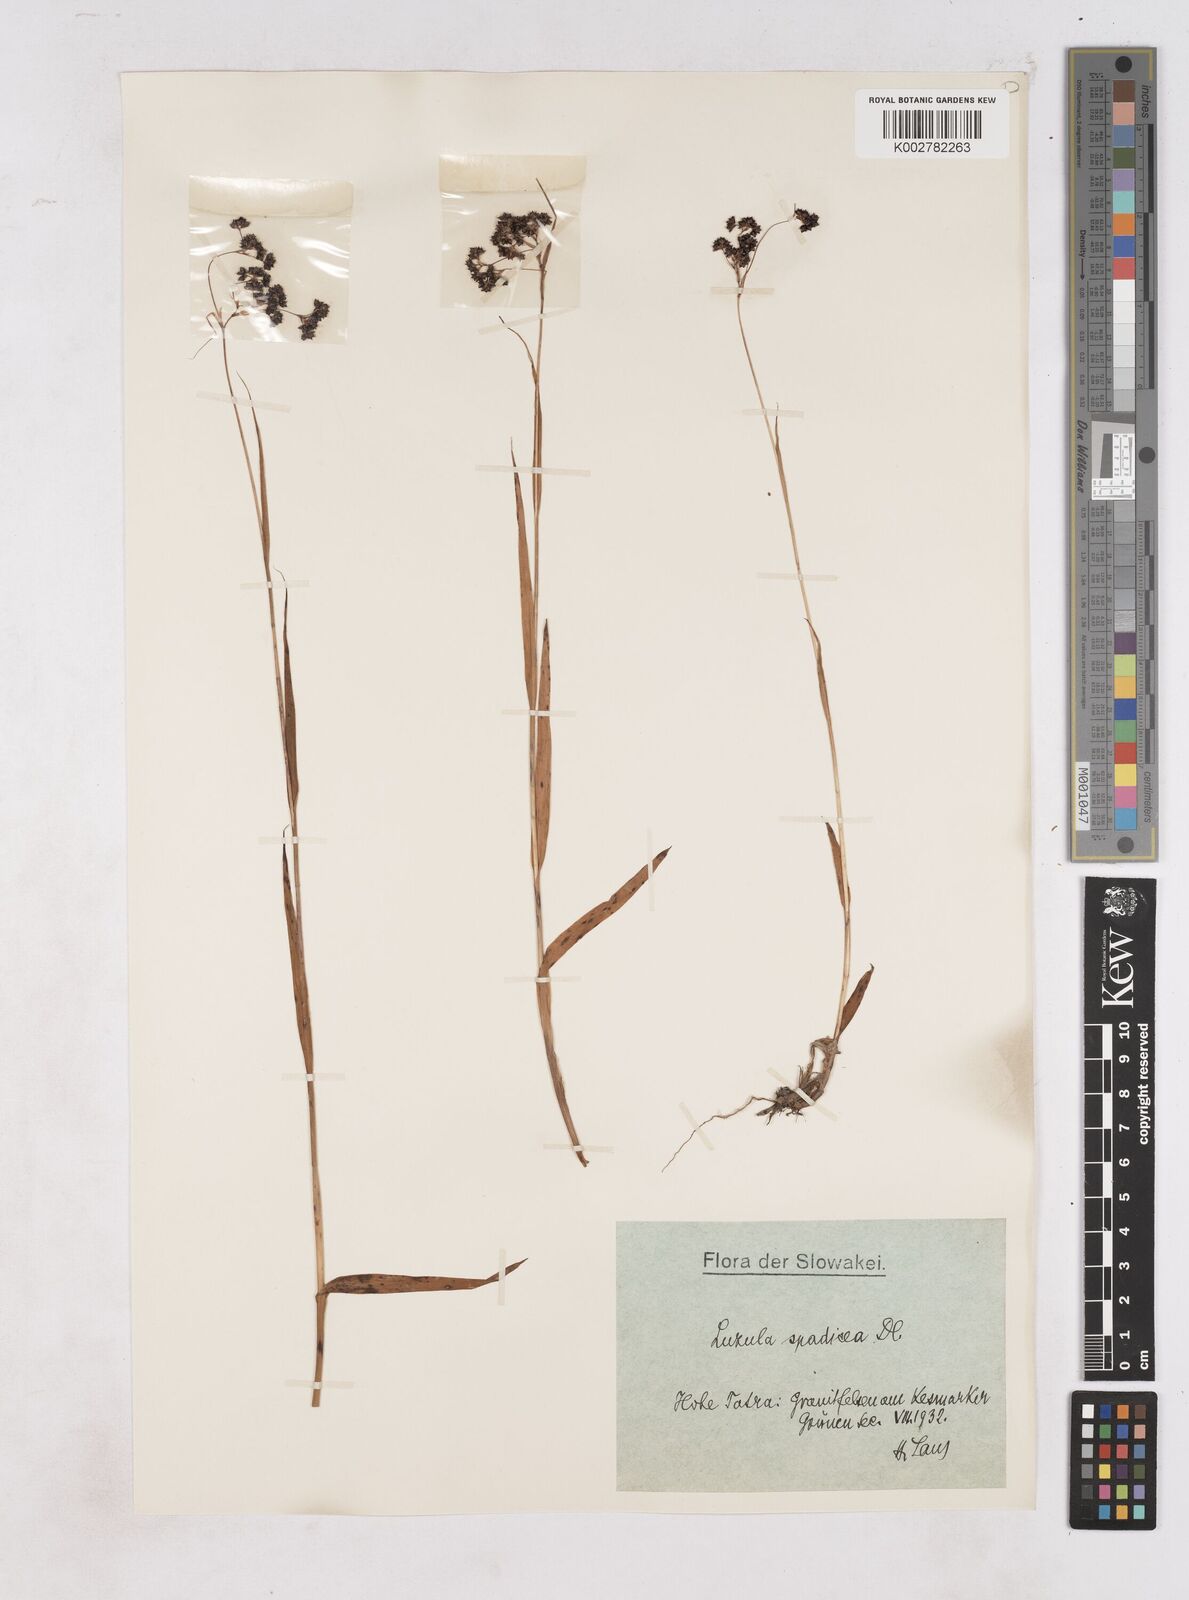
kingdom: Plantae
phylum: Tracheophyta
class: Liliopsida
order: Poales
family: Juncaceae
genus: Luzula
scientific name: Luzula alpinopilosa
